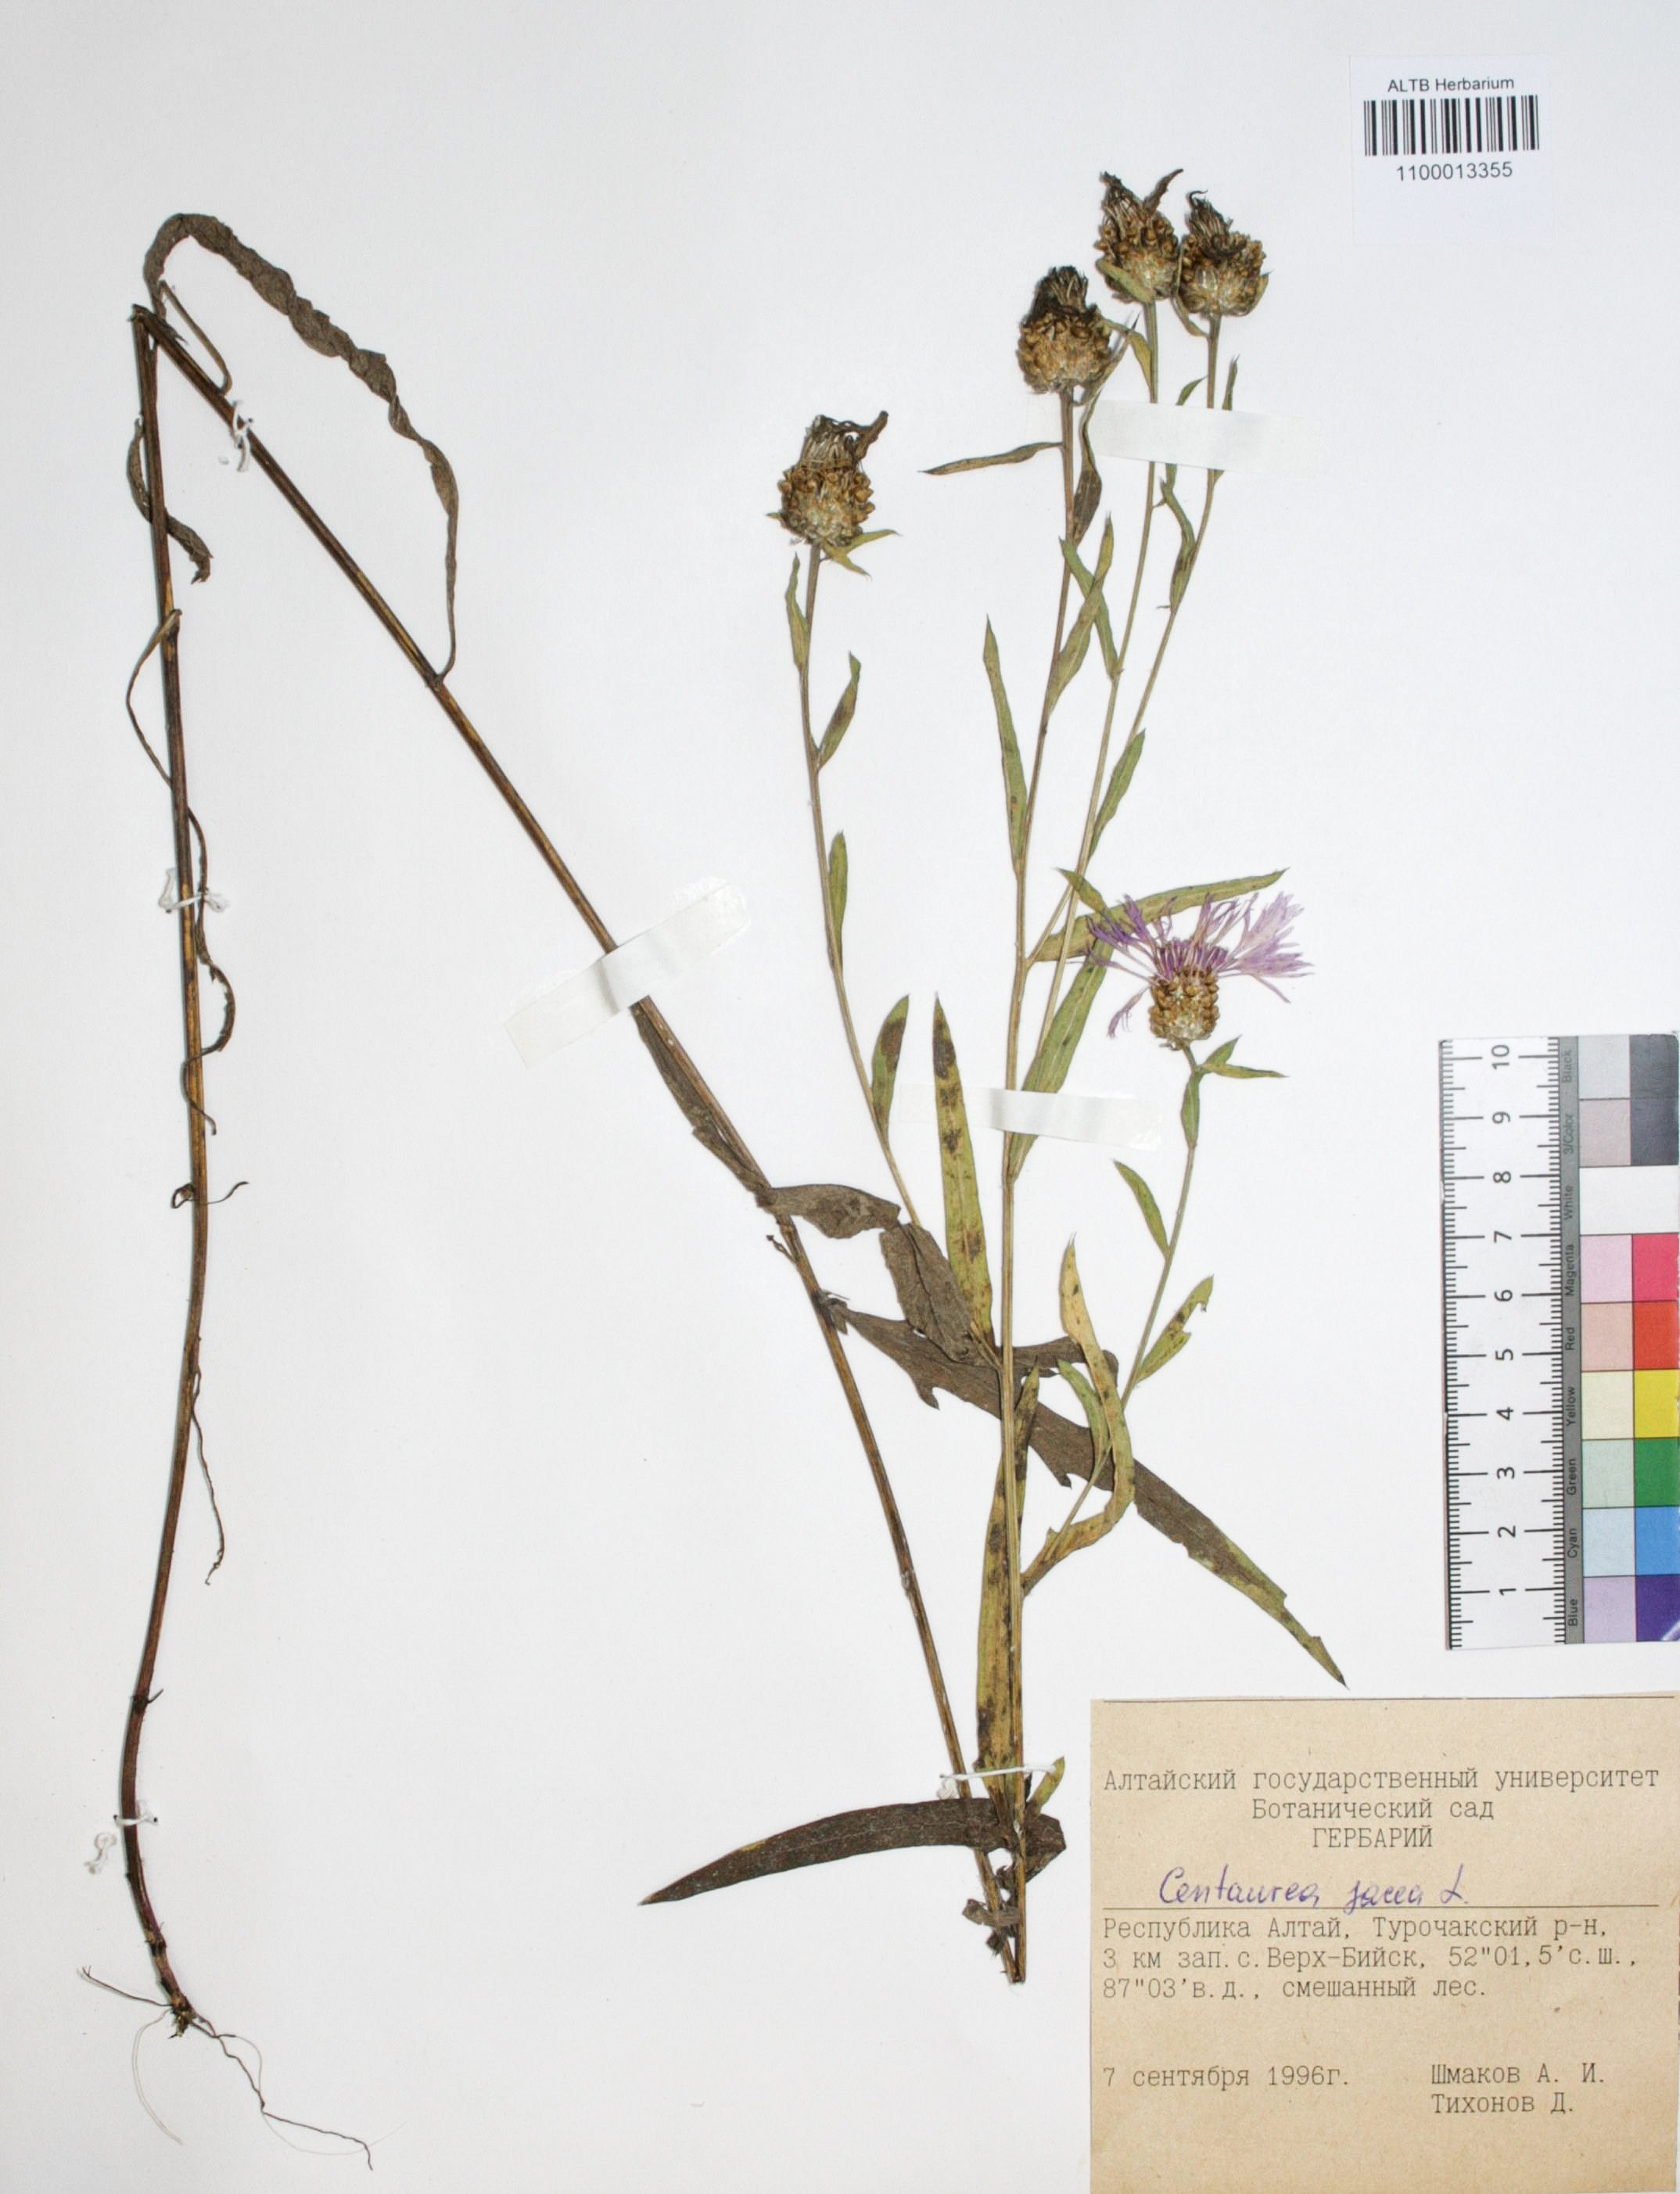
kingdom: Plantae
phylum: Tracheophyta
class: Magnoliopsida
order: Asterales
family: Asteraceae
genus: Centaurea
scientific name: Centaurea jacea
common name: Brown knapweed
